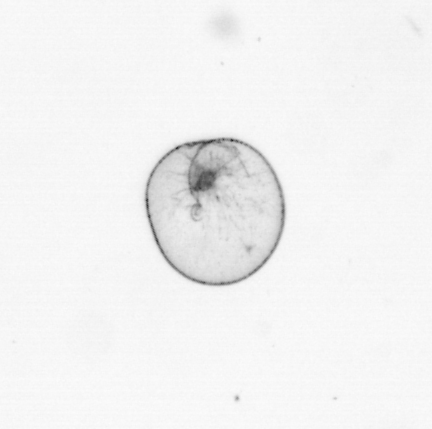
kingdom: Chromista
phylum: Myzozoa
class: Dinophyceae
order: Noctilucales
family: Noctilucaceae
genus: Noctiluca
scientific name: Noctiluca scintillans
